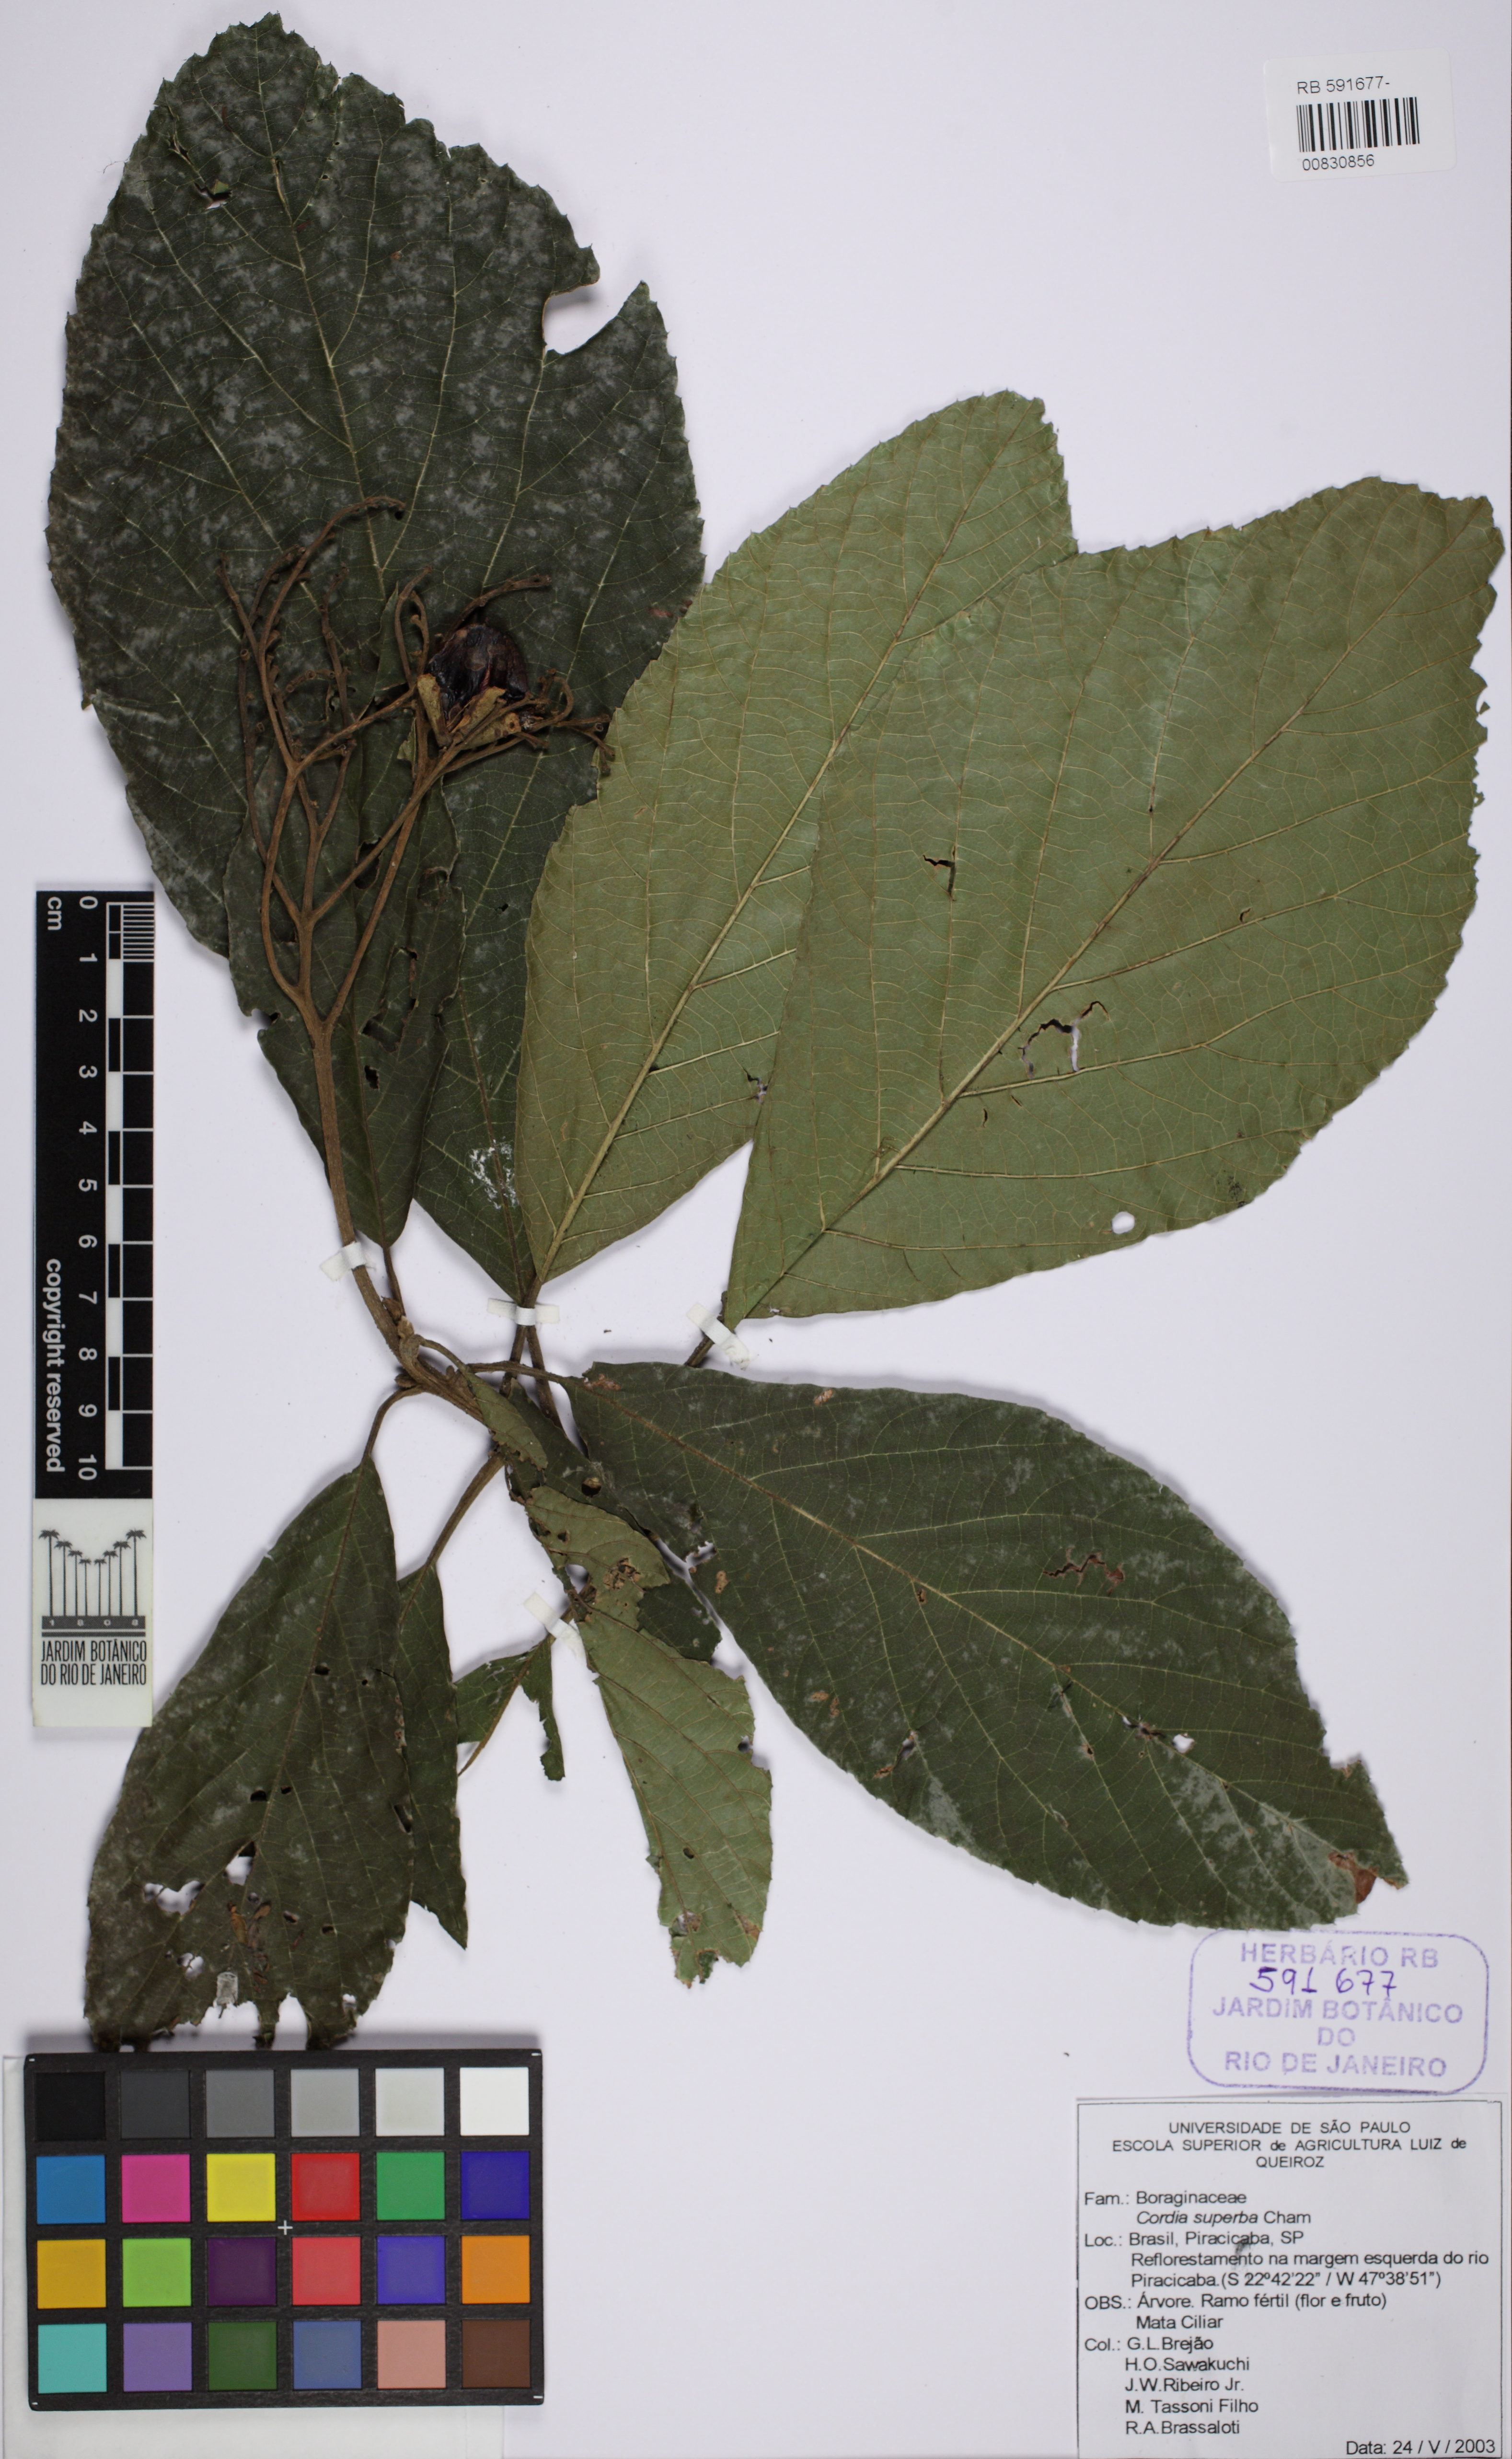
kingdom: Plantae
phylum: Tracheophyta
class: Magnoliopsida
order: Boraginales
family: Cordiaceae
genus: Cordia
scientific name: Cordia superba
